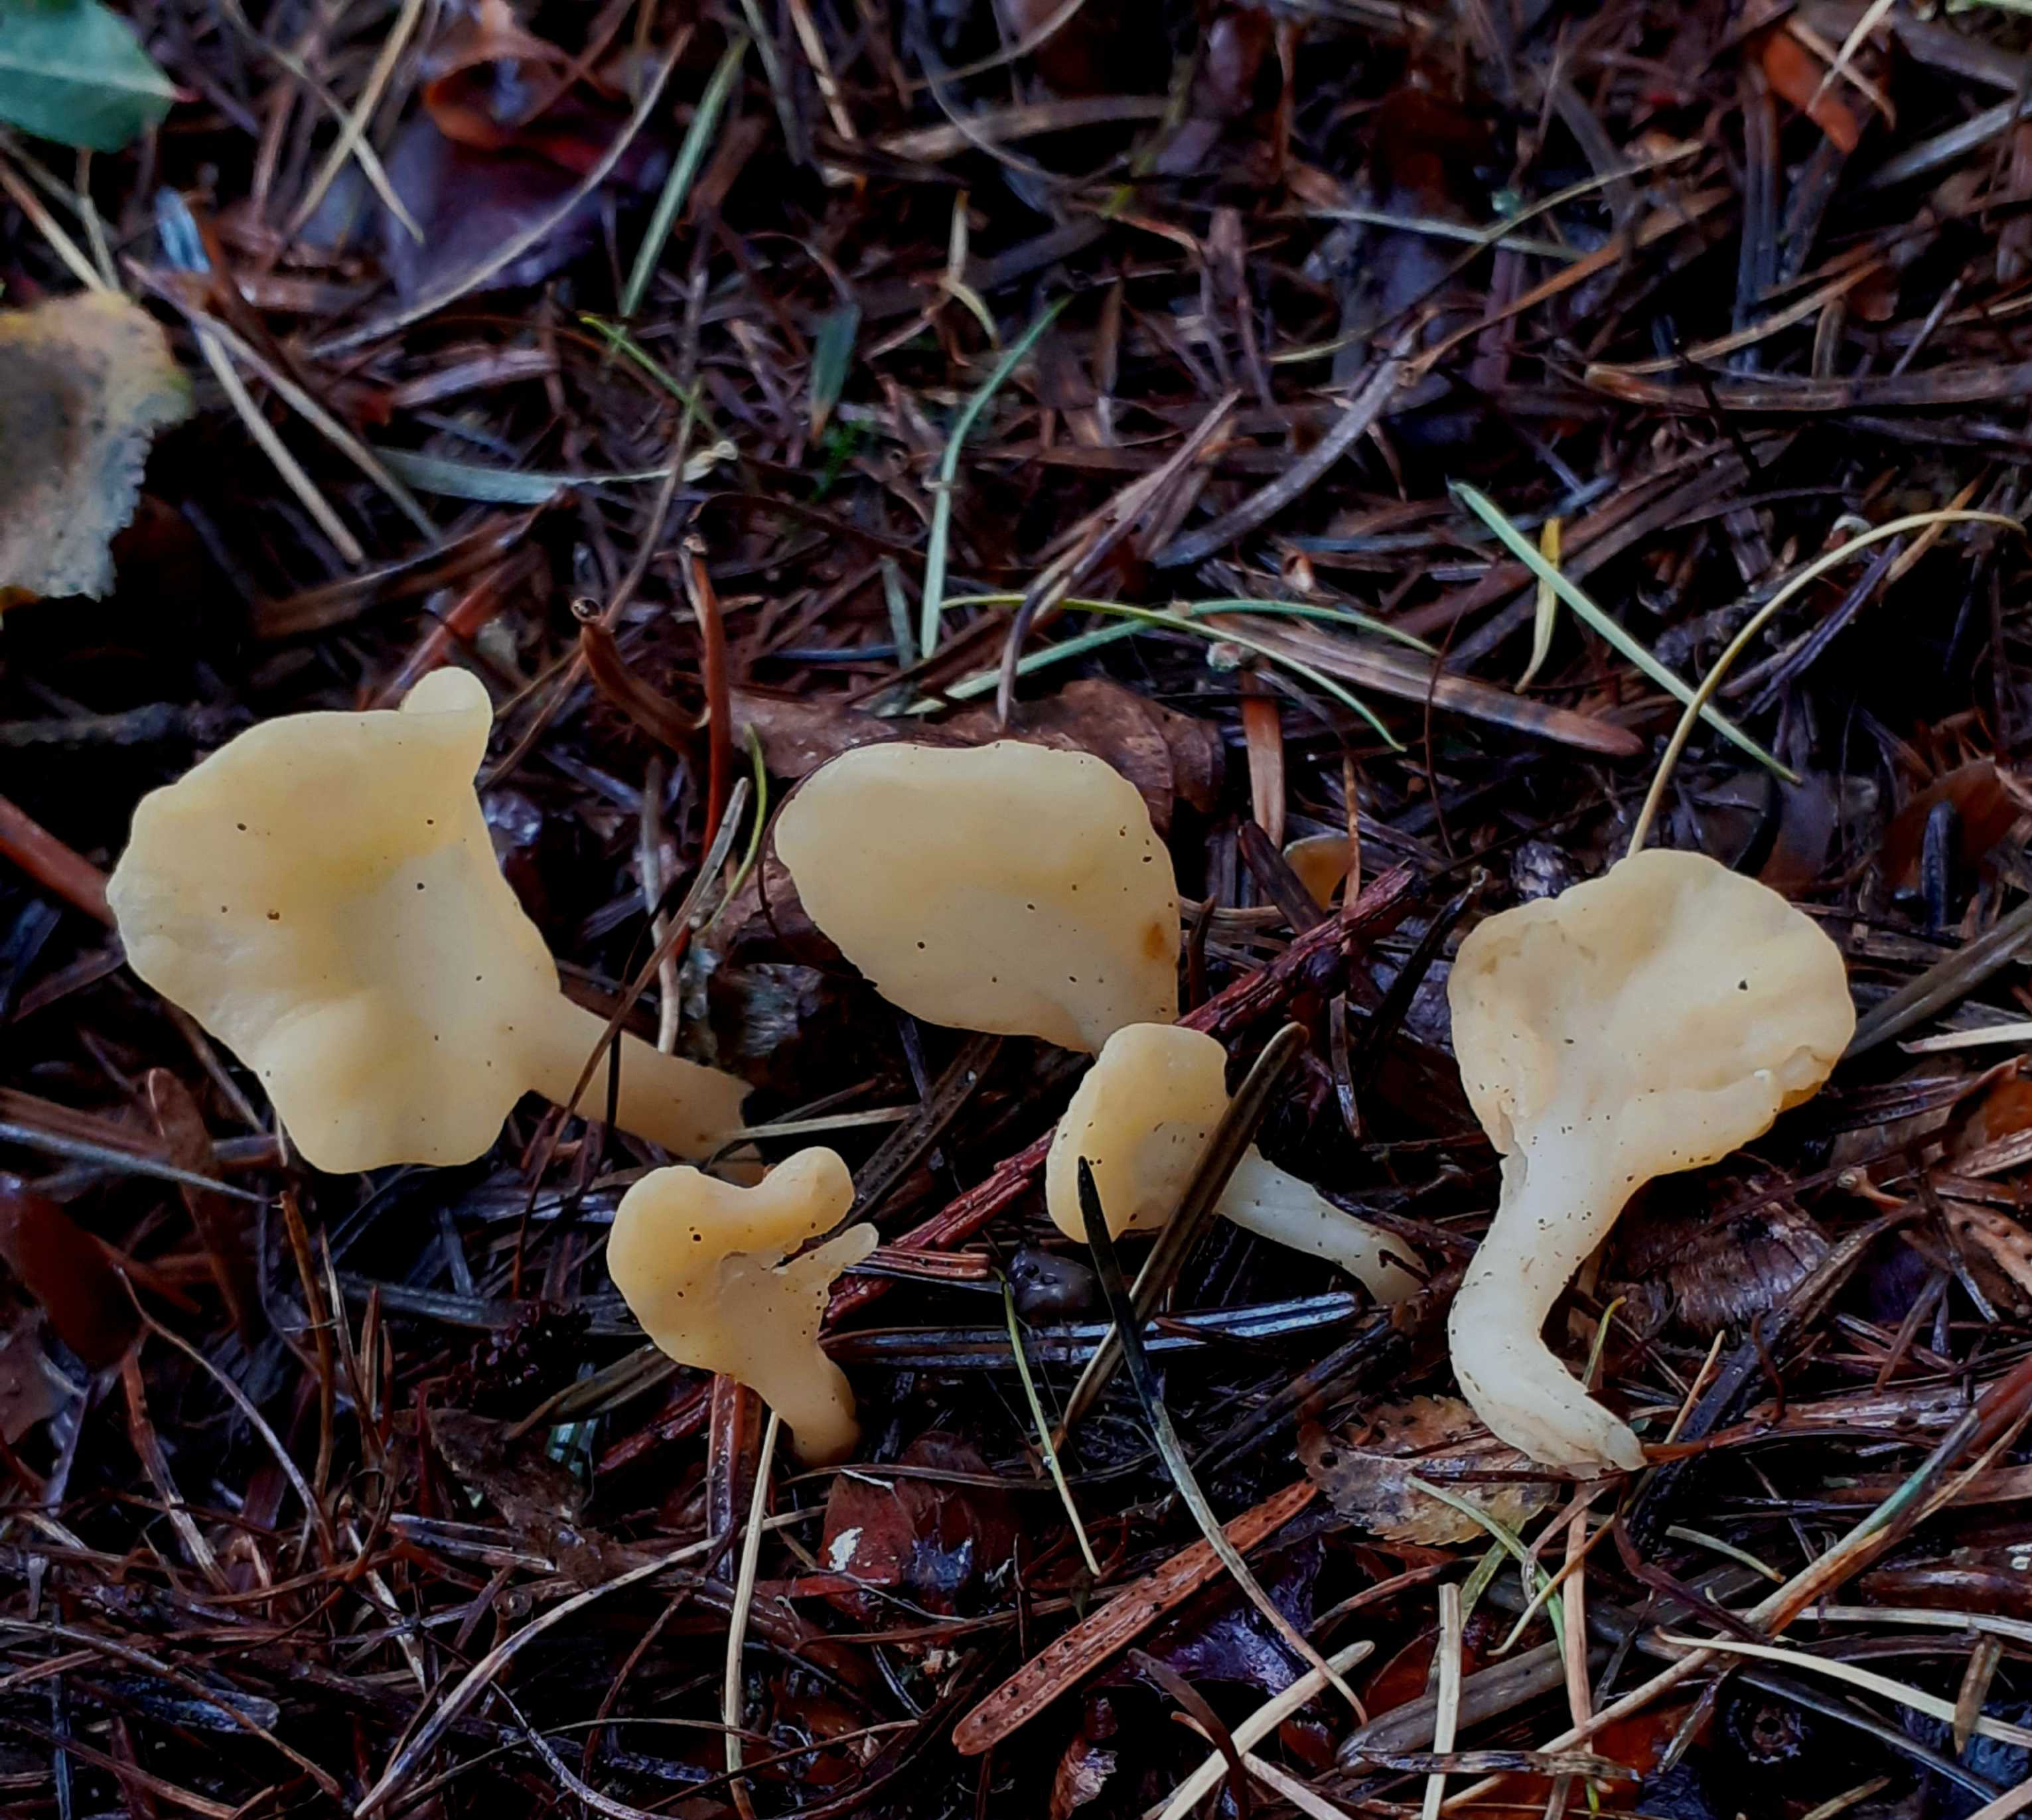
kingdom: Fungi
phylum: Ascomycota
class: Leotiomycetes
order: Rhytismatales
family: Cudoniaceae
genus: Spathularia
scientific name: Spathularia flavida
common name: gul spatelsvamp
